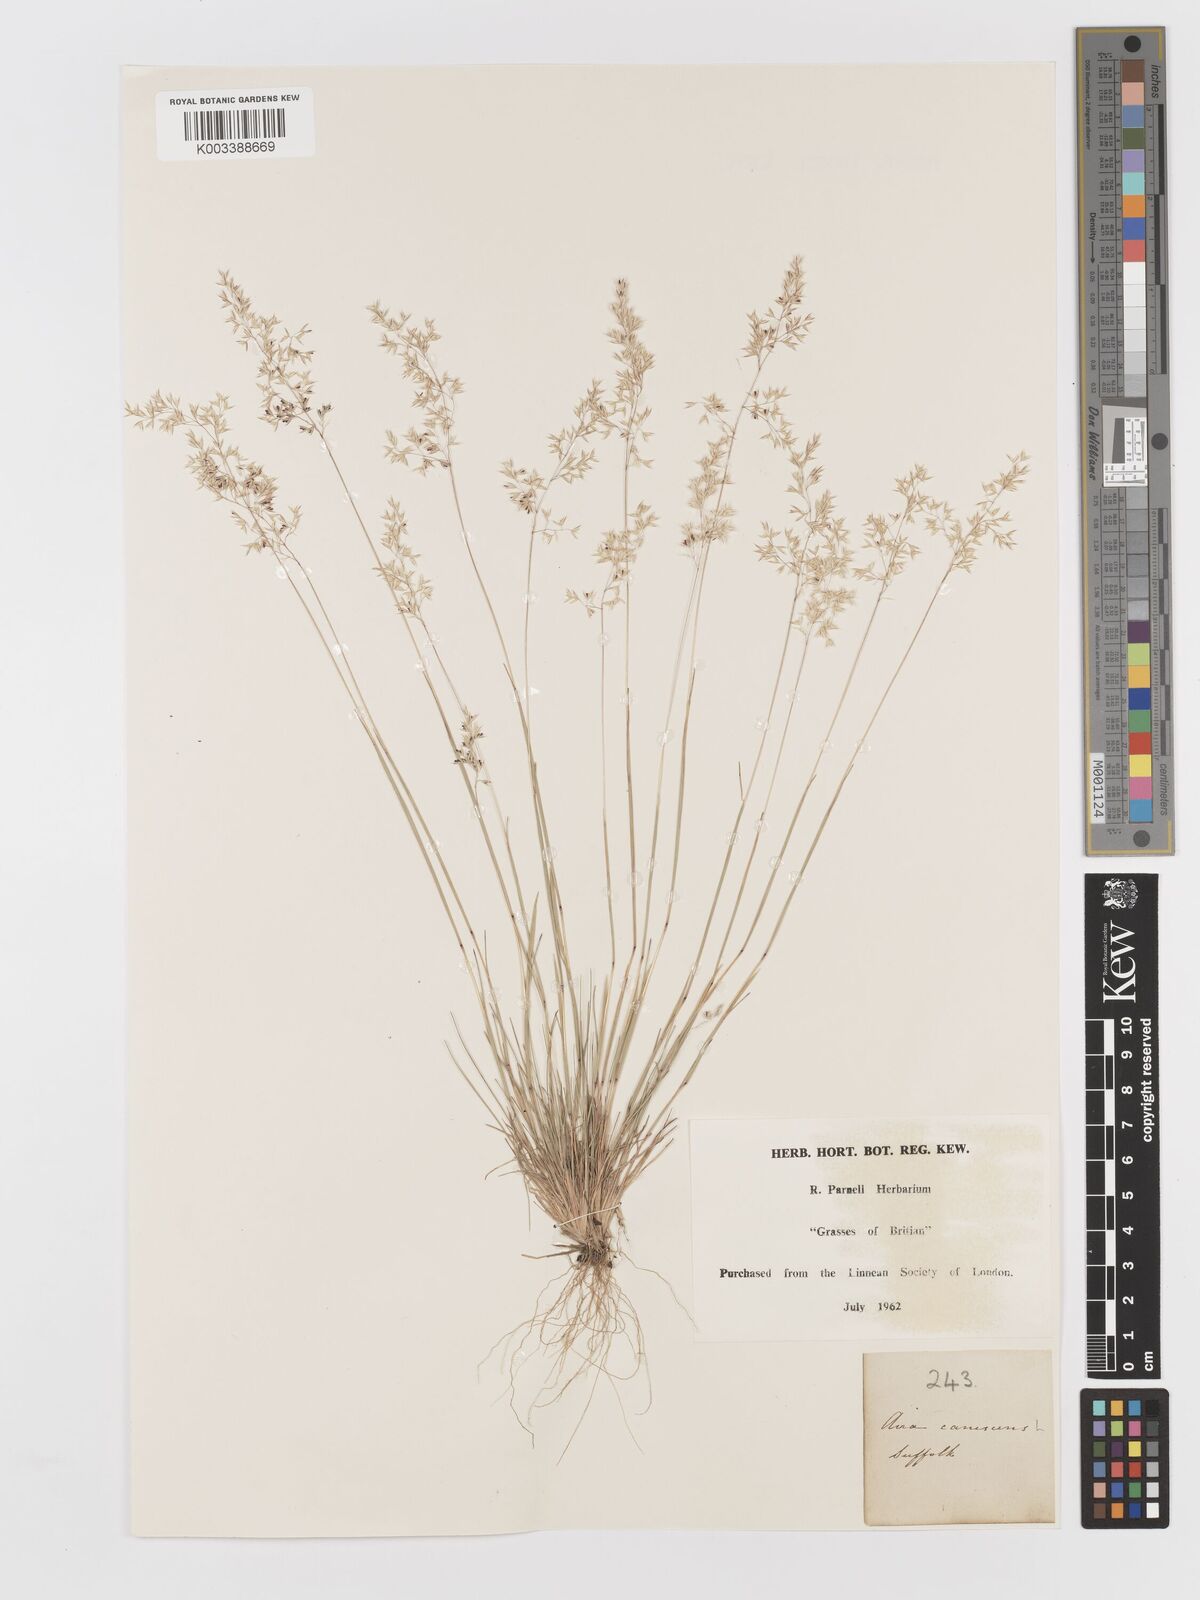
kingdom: Plantae
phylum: Tracheophyta
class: Liliopsida
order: Poales
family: Poaceae
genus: Corynephorus
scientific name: Corynephorus canescens
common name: Grey hair-grass
